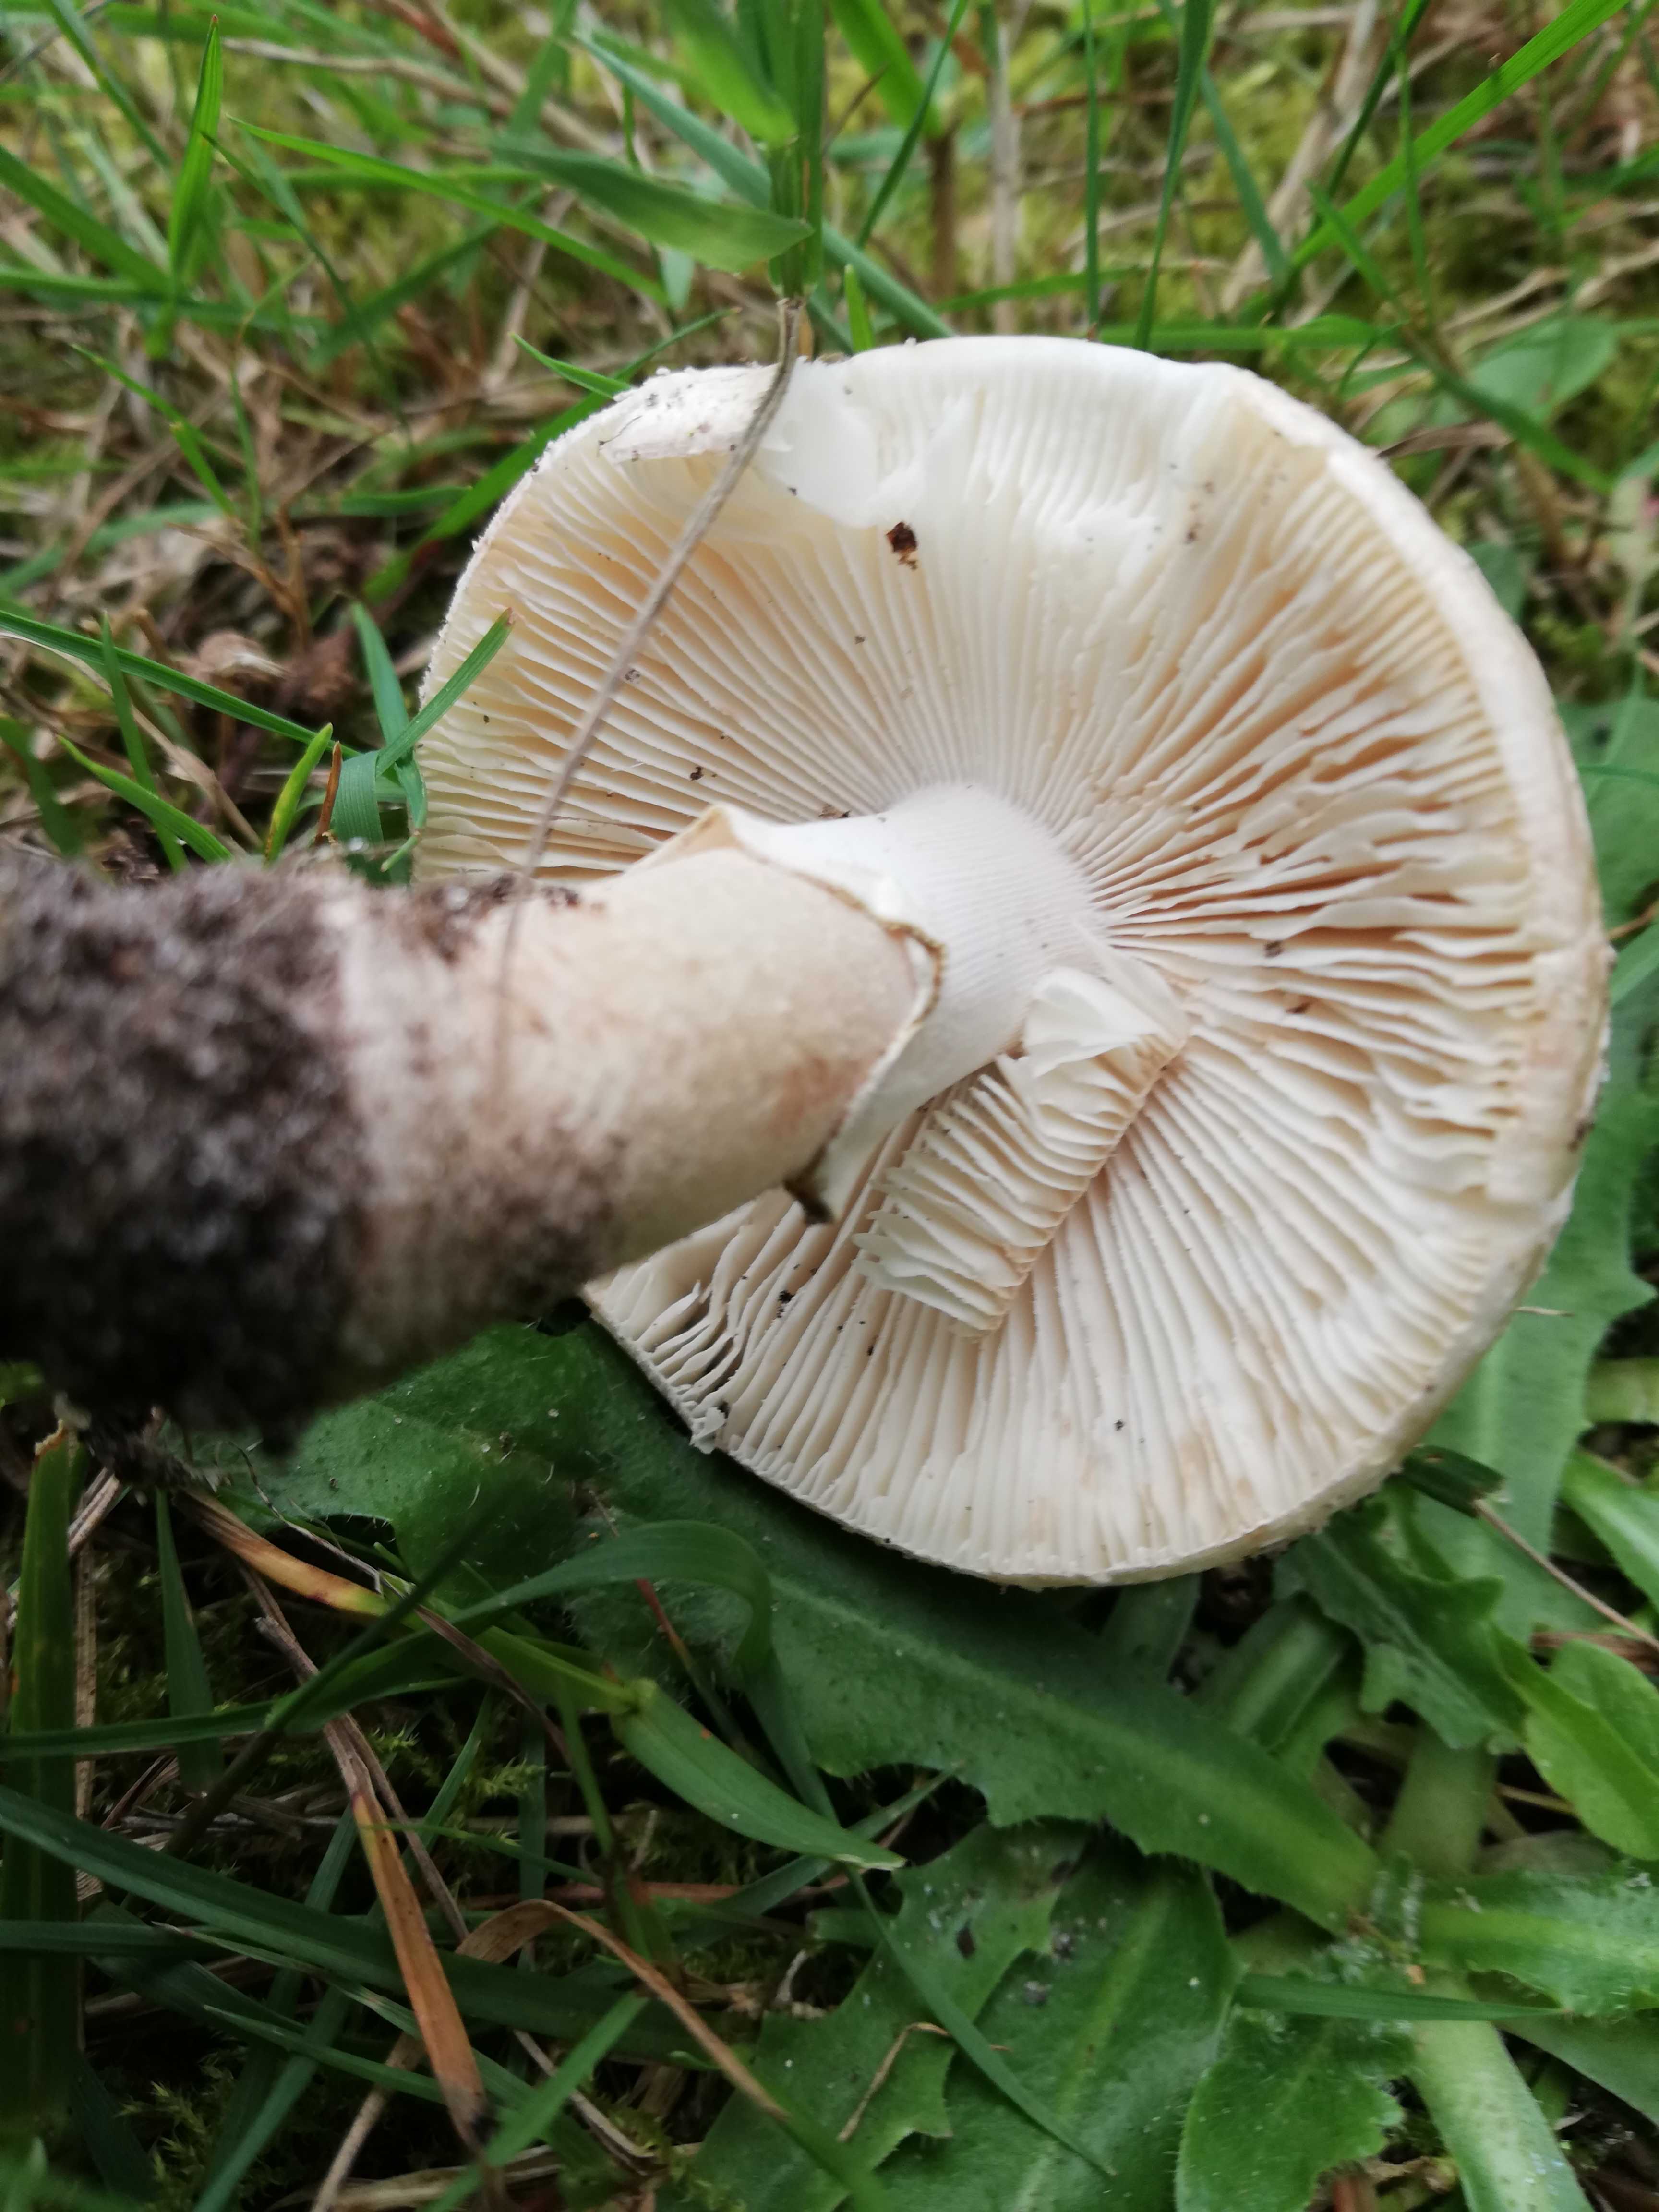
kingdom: Fungi
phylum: Basidiomycota
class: Agaricomycetes
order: Agaricales
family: Amanitaceae
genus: Amanita
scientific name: Amanita rubescens
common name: rødmende fluesvamp
